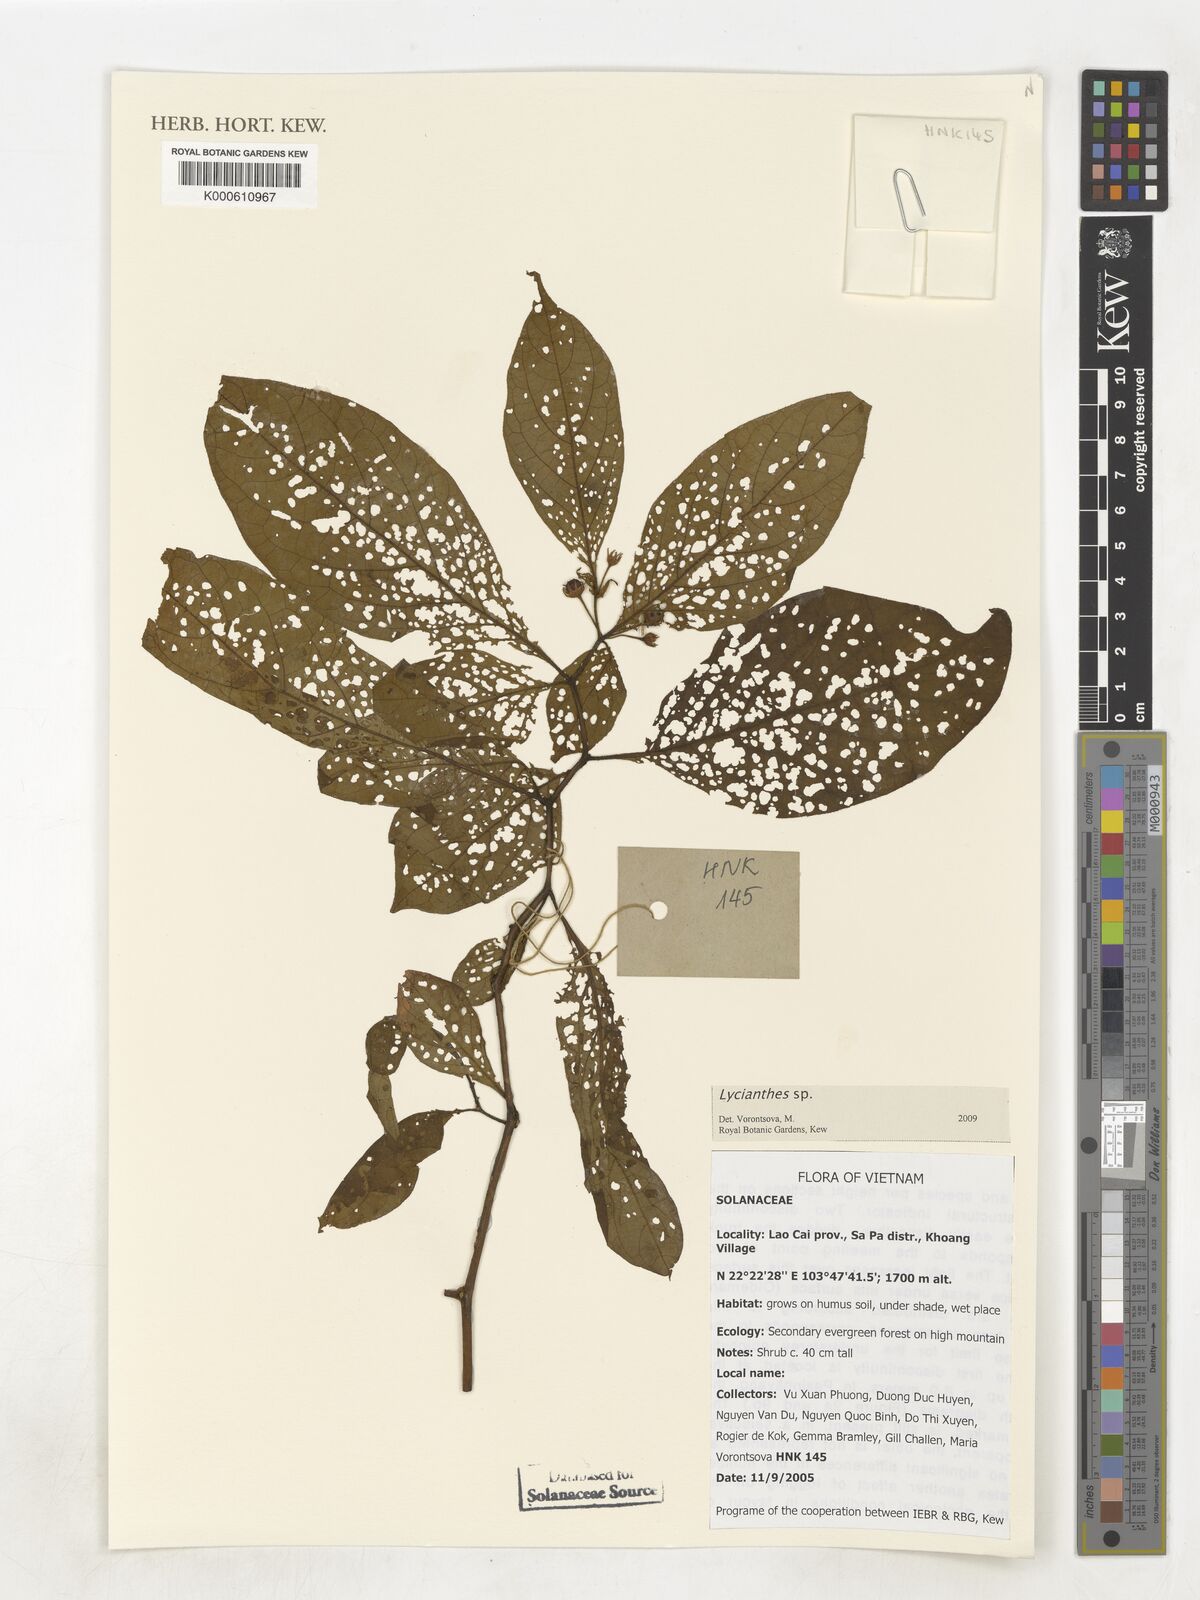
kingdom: Plantae
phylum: Tracheophyta
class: Magnoliopsida
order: Solanales
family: Solanaceae
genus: Lycianthes
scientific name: Lycianthes
